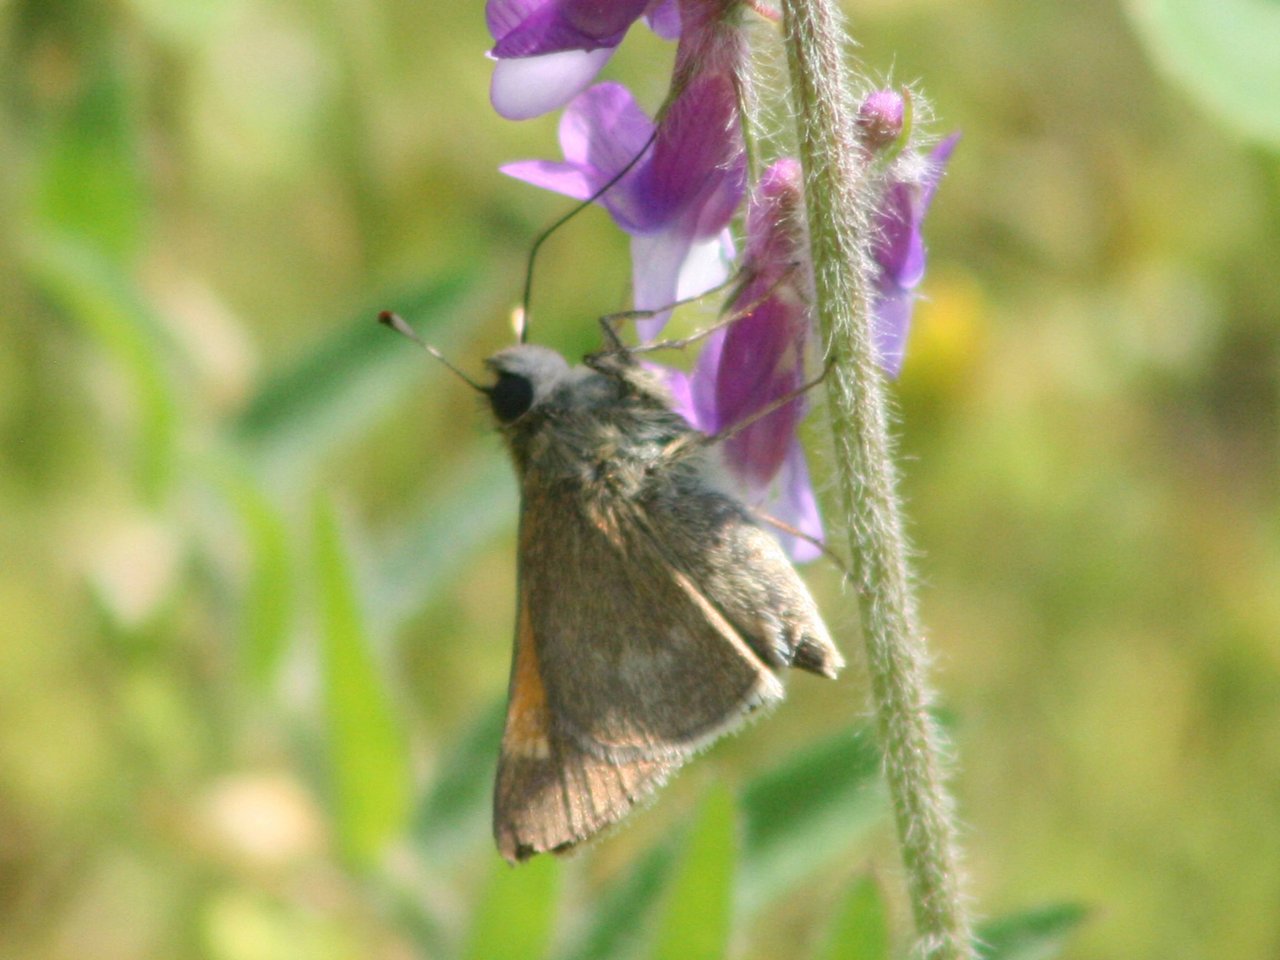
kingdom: Animalia
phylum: Arthropoda
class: Insecta
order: Lepidoptera
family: Hesperiidae
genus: Polites
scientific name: Polites themistocles
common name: Tawny-edged Skipper
